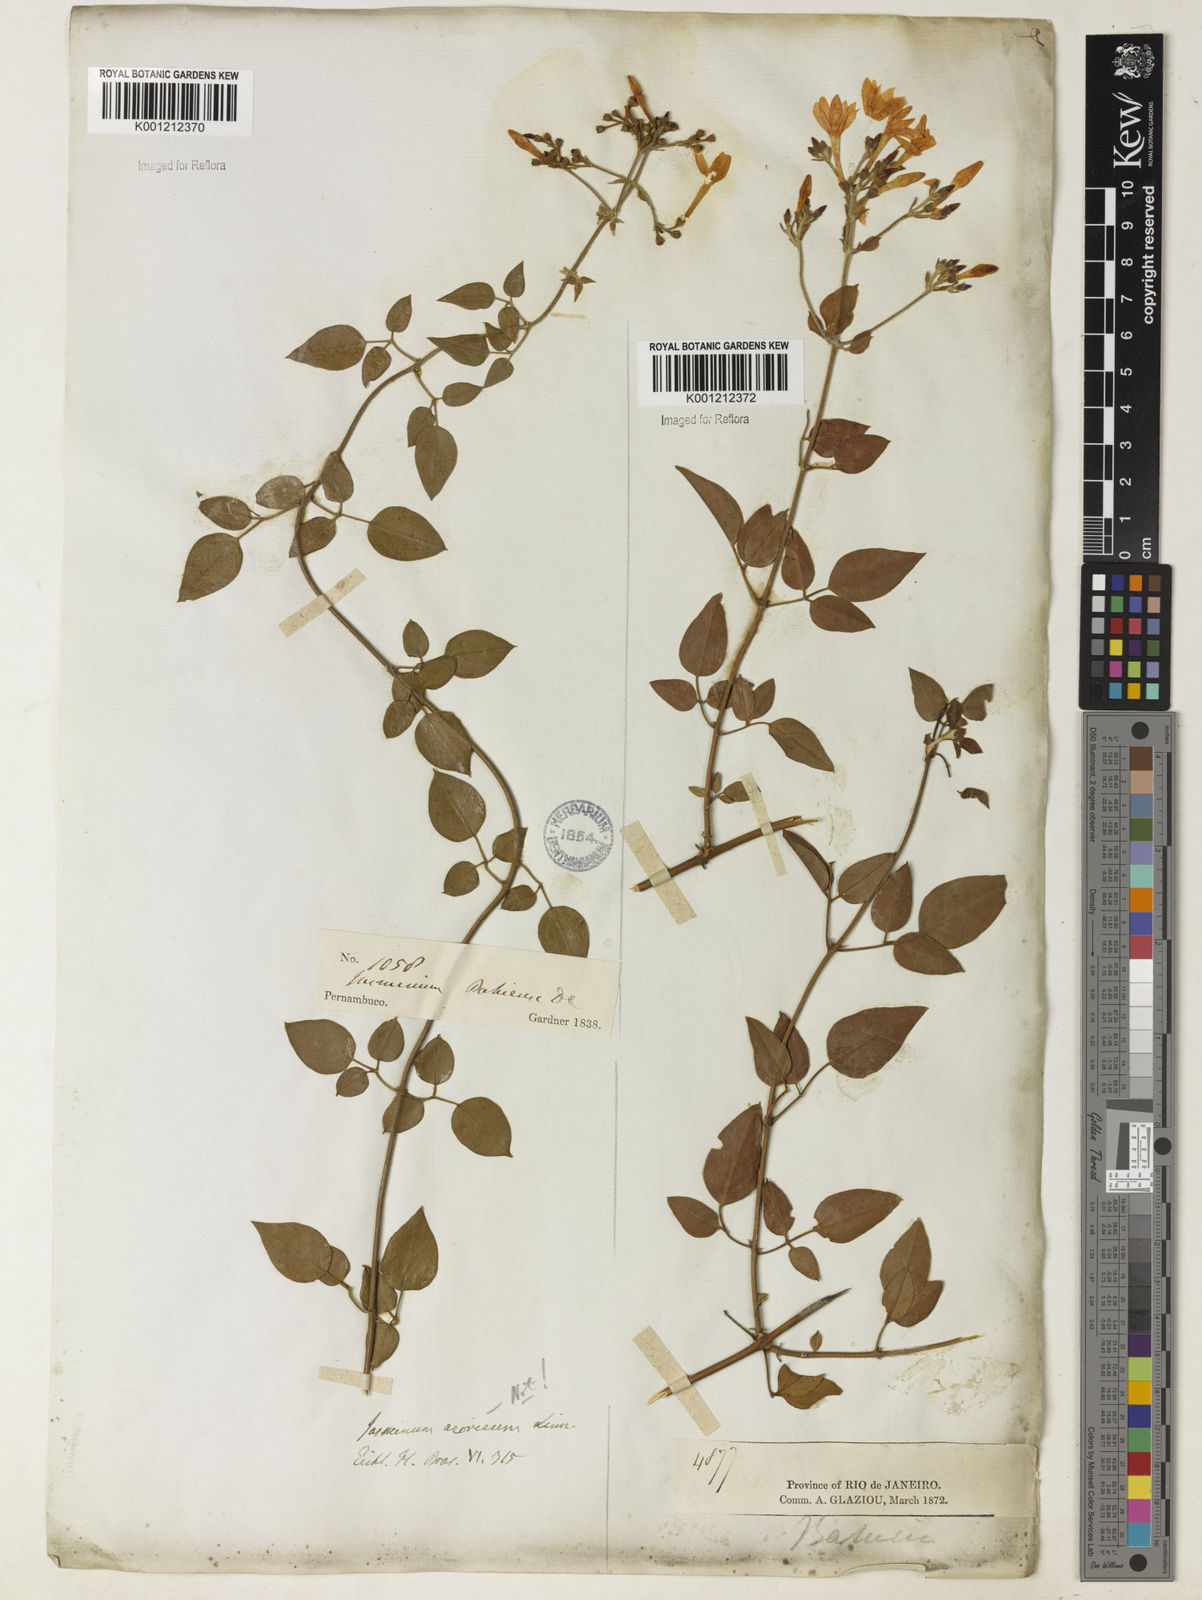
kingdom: Plantae
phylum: Tracheophyta
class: Magnoliopsida
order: Lamiales
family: Oleaceae
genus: Jasminum
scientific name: Jasminum fluminense
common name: Brazilian jasmine
